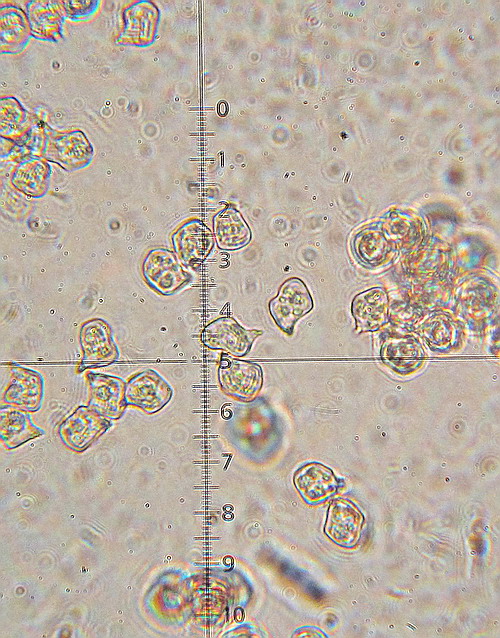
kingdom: Fungi
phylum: Basidiomycota
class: Agaricomycetes
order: Agaricales
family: Entolomataceae
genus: Entoloma
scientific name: Entoloma lividoalbum
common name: lysstokket rødblad
